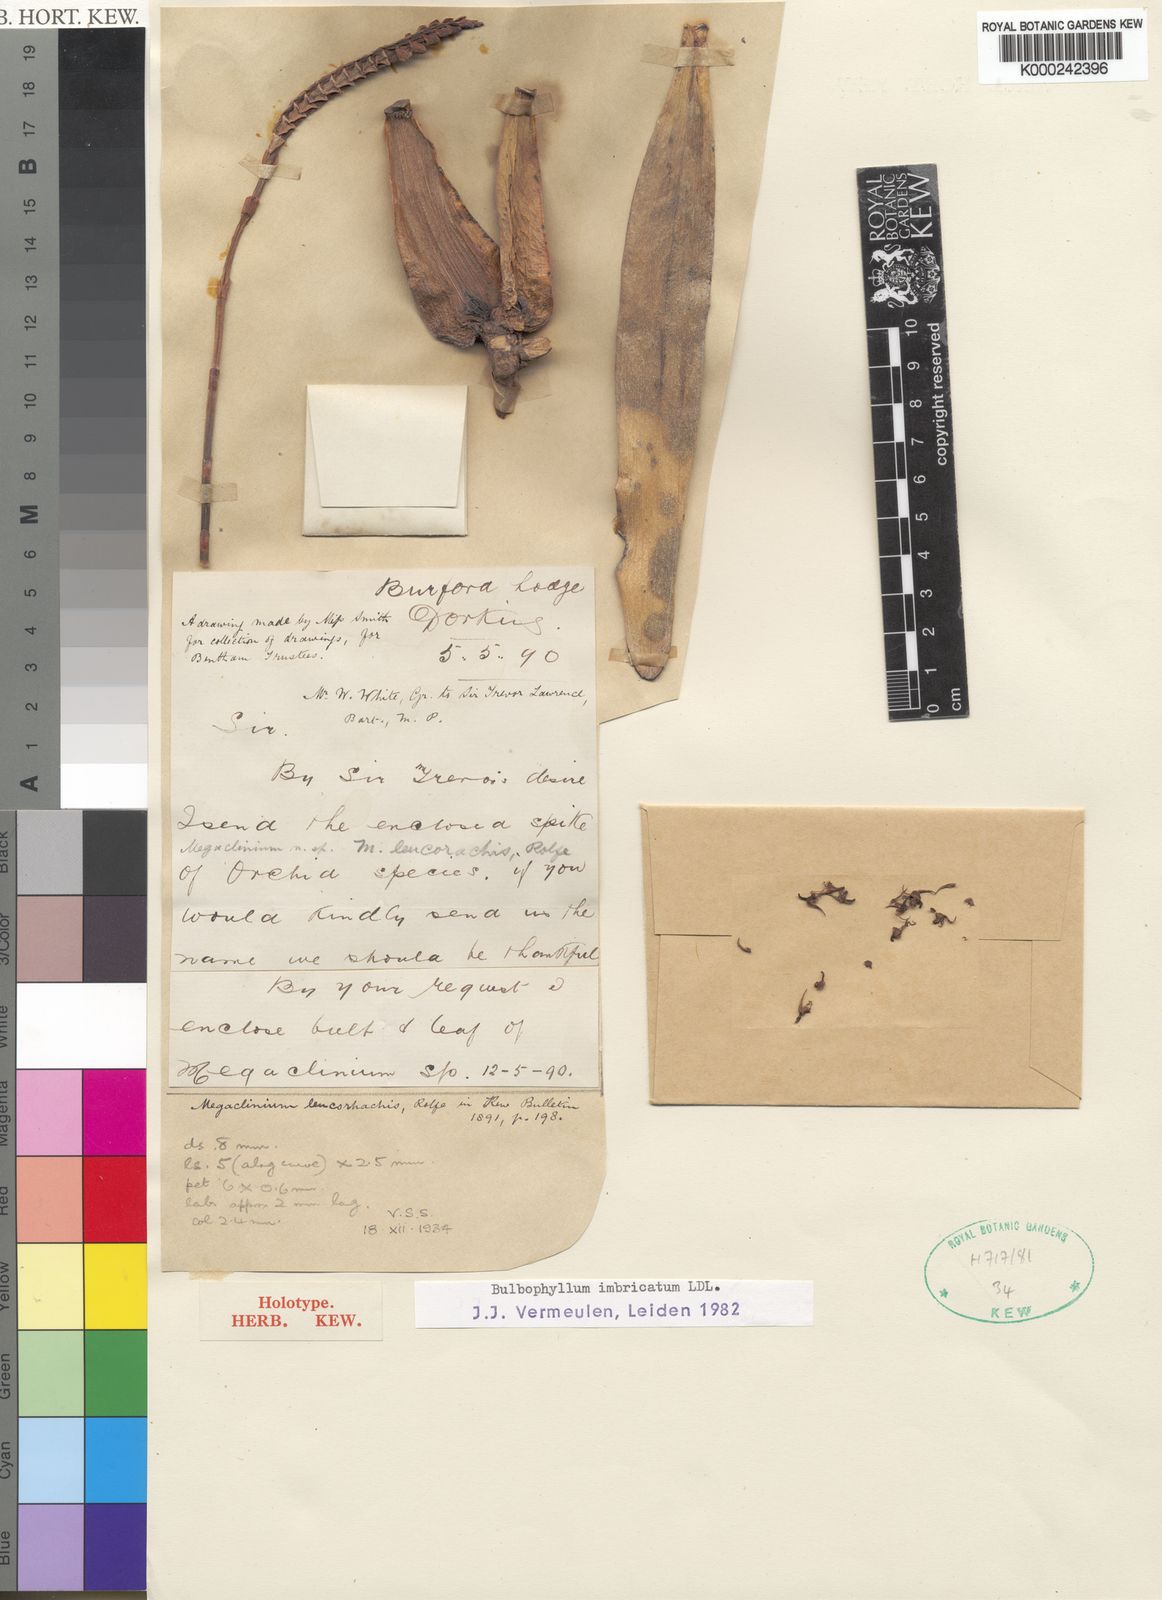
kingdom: Plantae
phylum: Tracheophyta
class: Liliopsida
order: Asparagales
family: Orchidaceae
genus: Bulbophyllum
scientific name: Bulbophyllum imbricatum
